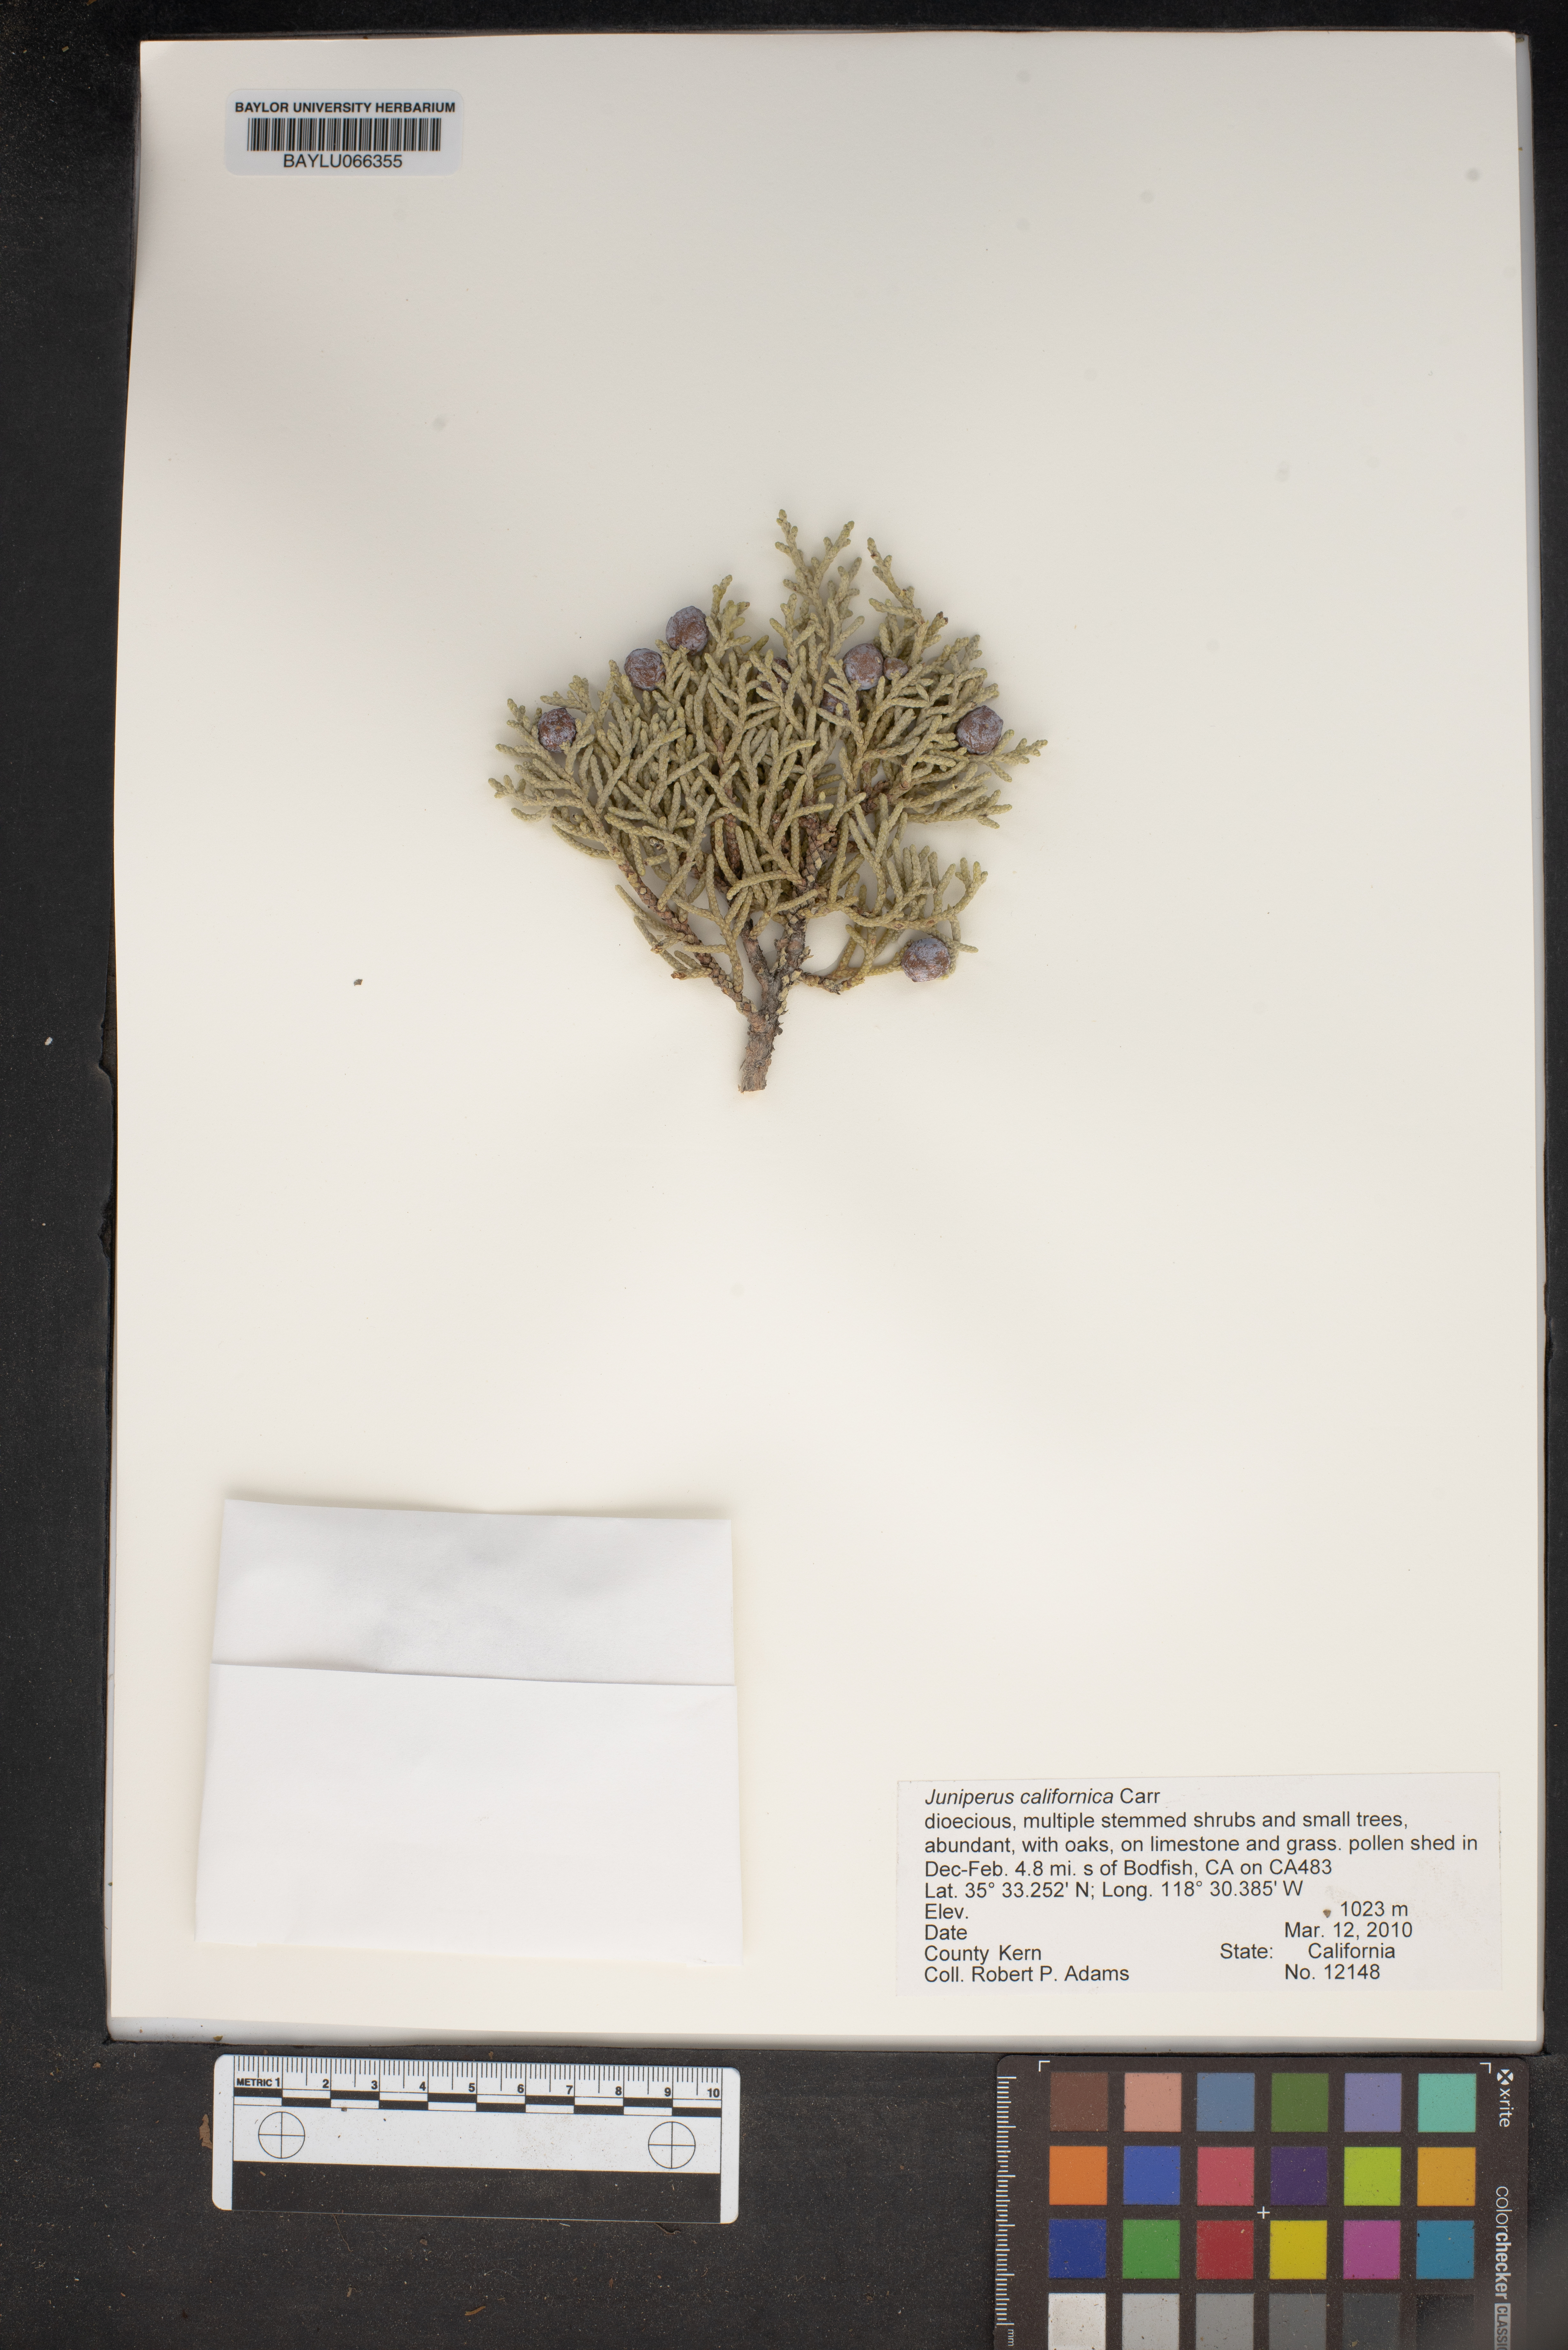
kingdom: Plantae
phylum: Tracheophyta
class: Pinopsida
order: Pinales
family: Cupressaceae
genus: Juniperus
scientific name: Juniperus californica
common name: California juniper
